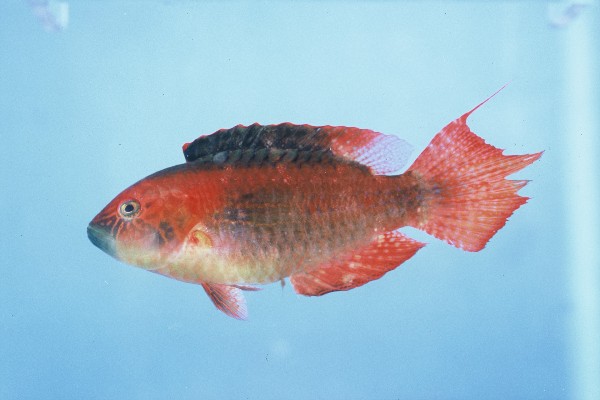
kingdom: Animalia
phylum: Chordata
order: Perciformes
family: Labridae
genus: Oxycheilinus
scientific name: Oxycheilinus bimaculatus
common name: Comettailed wrasse
